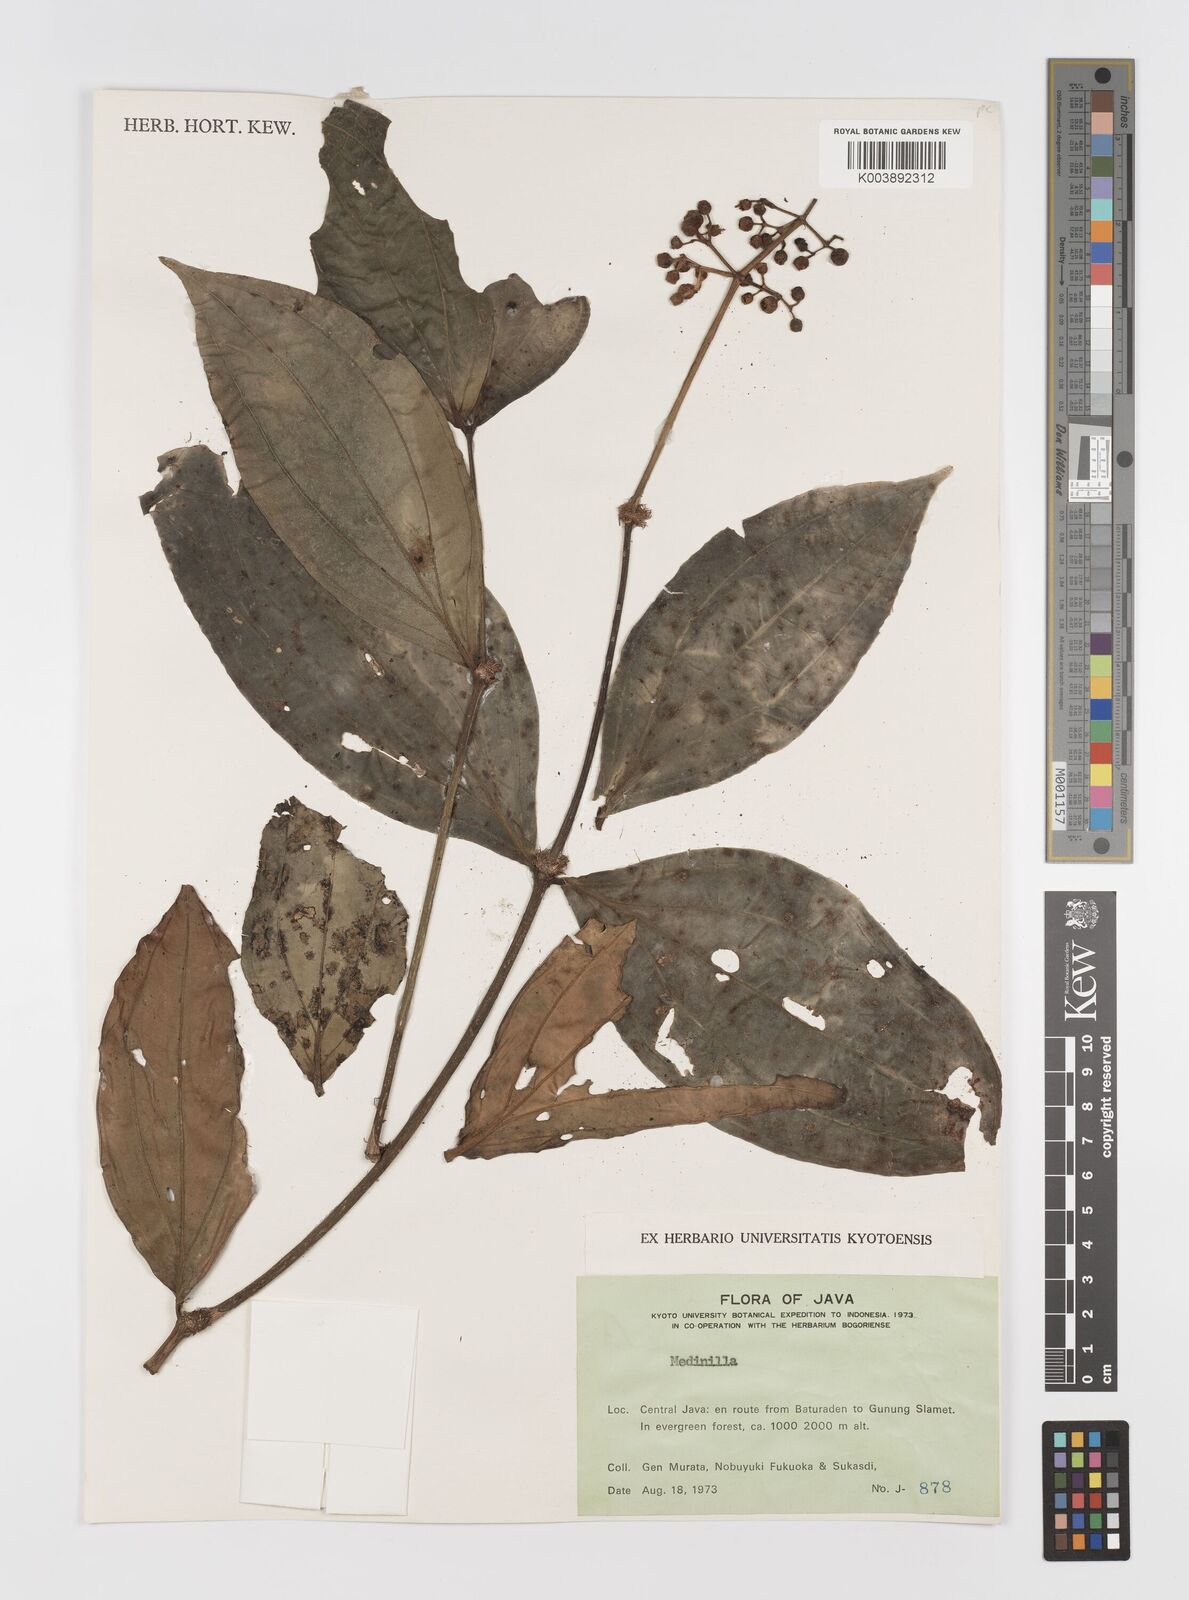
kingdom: Plantae
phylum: Tracheophyta
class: Magnoliopsida
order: Myrtales
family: Melastomataceae
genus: Medinilla
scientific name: Medinilla
